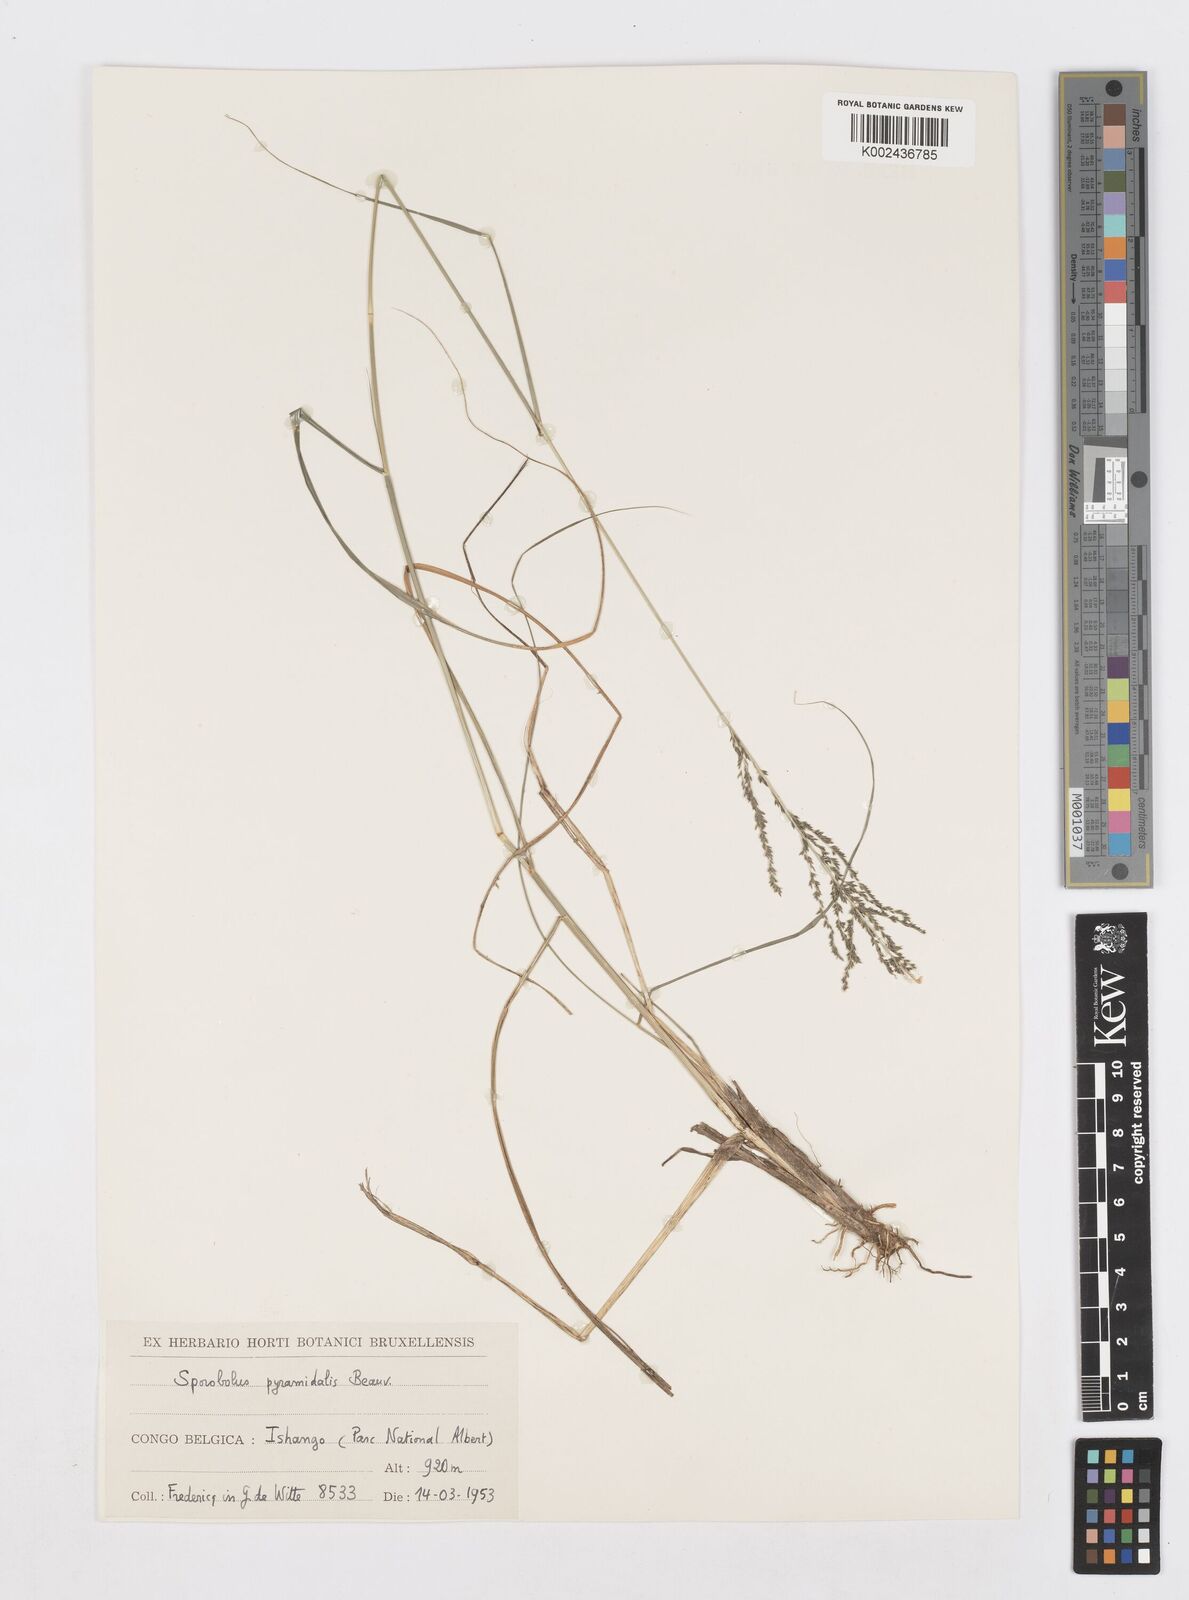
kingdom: Plantae
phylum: Tracheophyta
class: Liliopsida
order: Poales
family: Poaceae
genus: Sporobolus
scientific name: Sporobolus pyramidalis
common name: West indian dropseed
